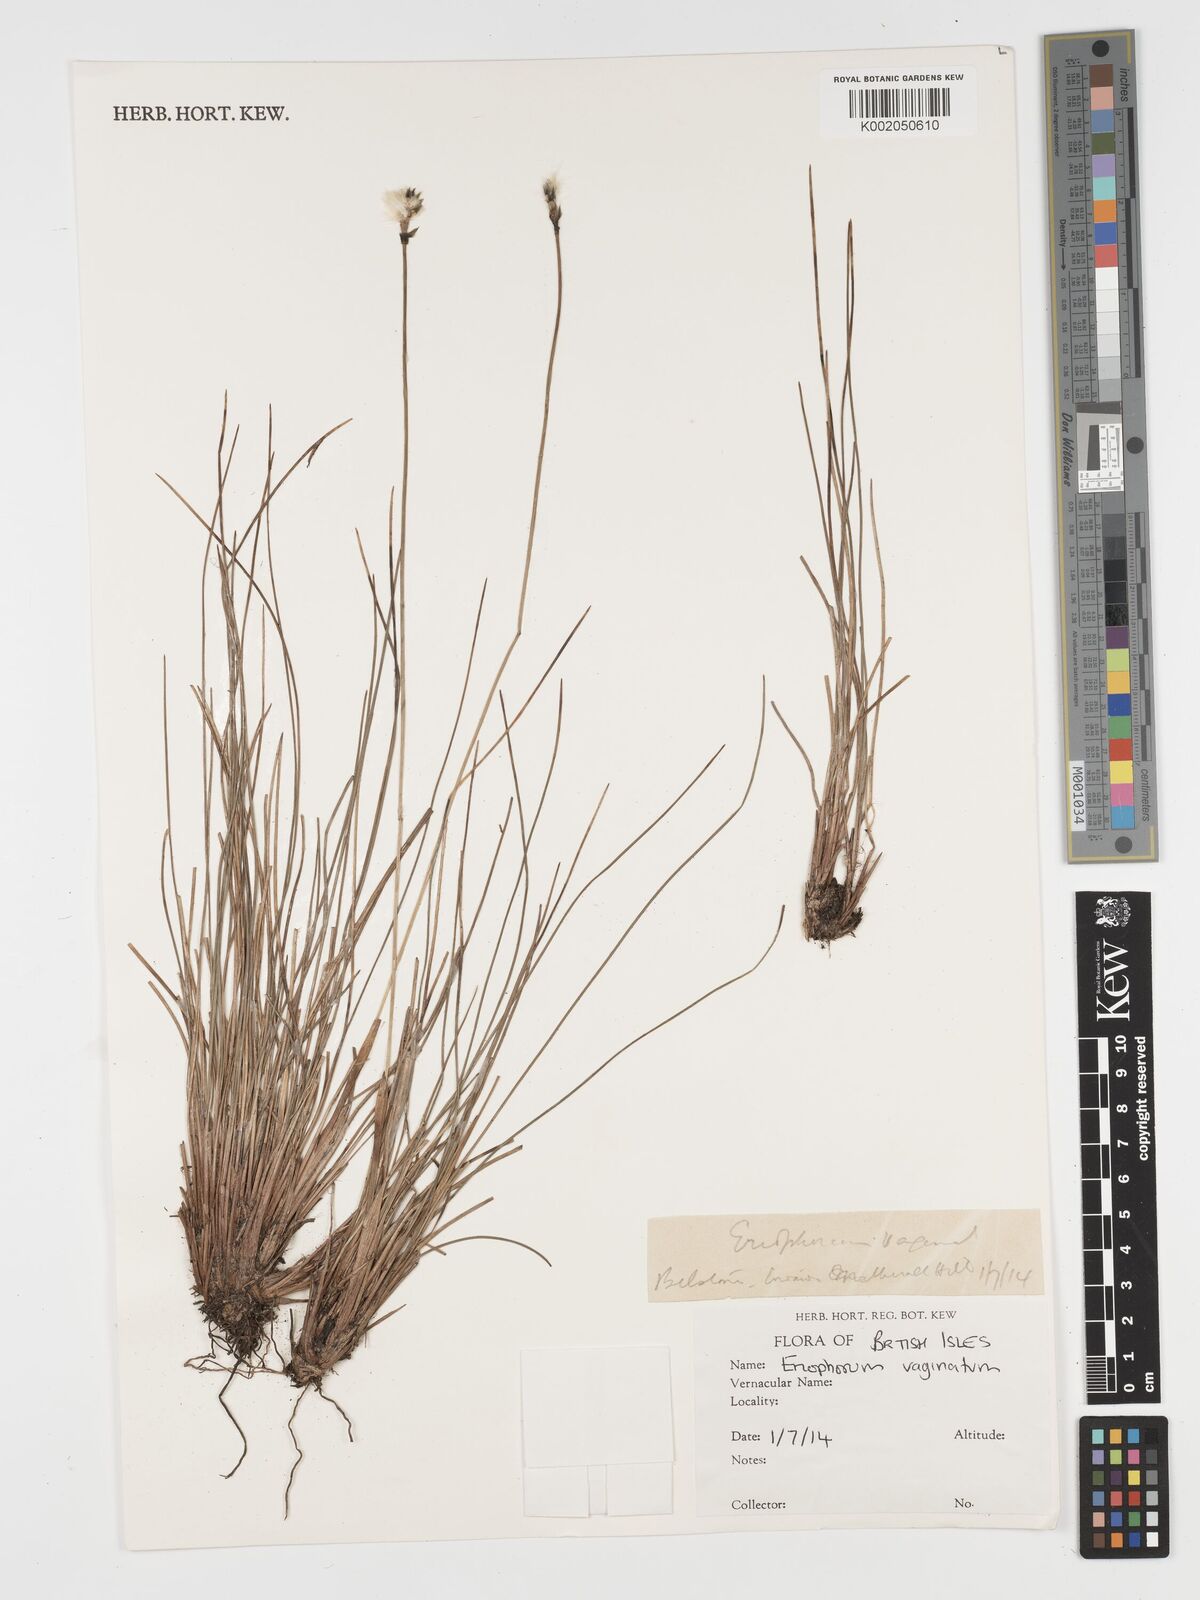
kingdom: Plantae
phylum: Tracheophyta
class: Liliopsida
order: Poales
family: Cyperaceae
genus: Eriophorum
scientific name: Eriophorum vaginatum
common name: Hare's-tail cottongrass
